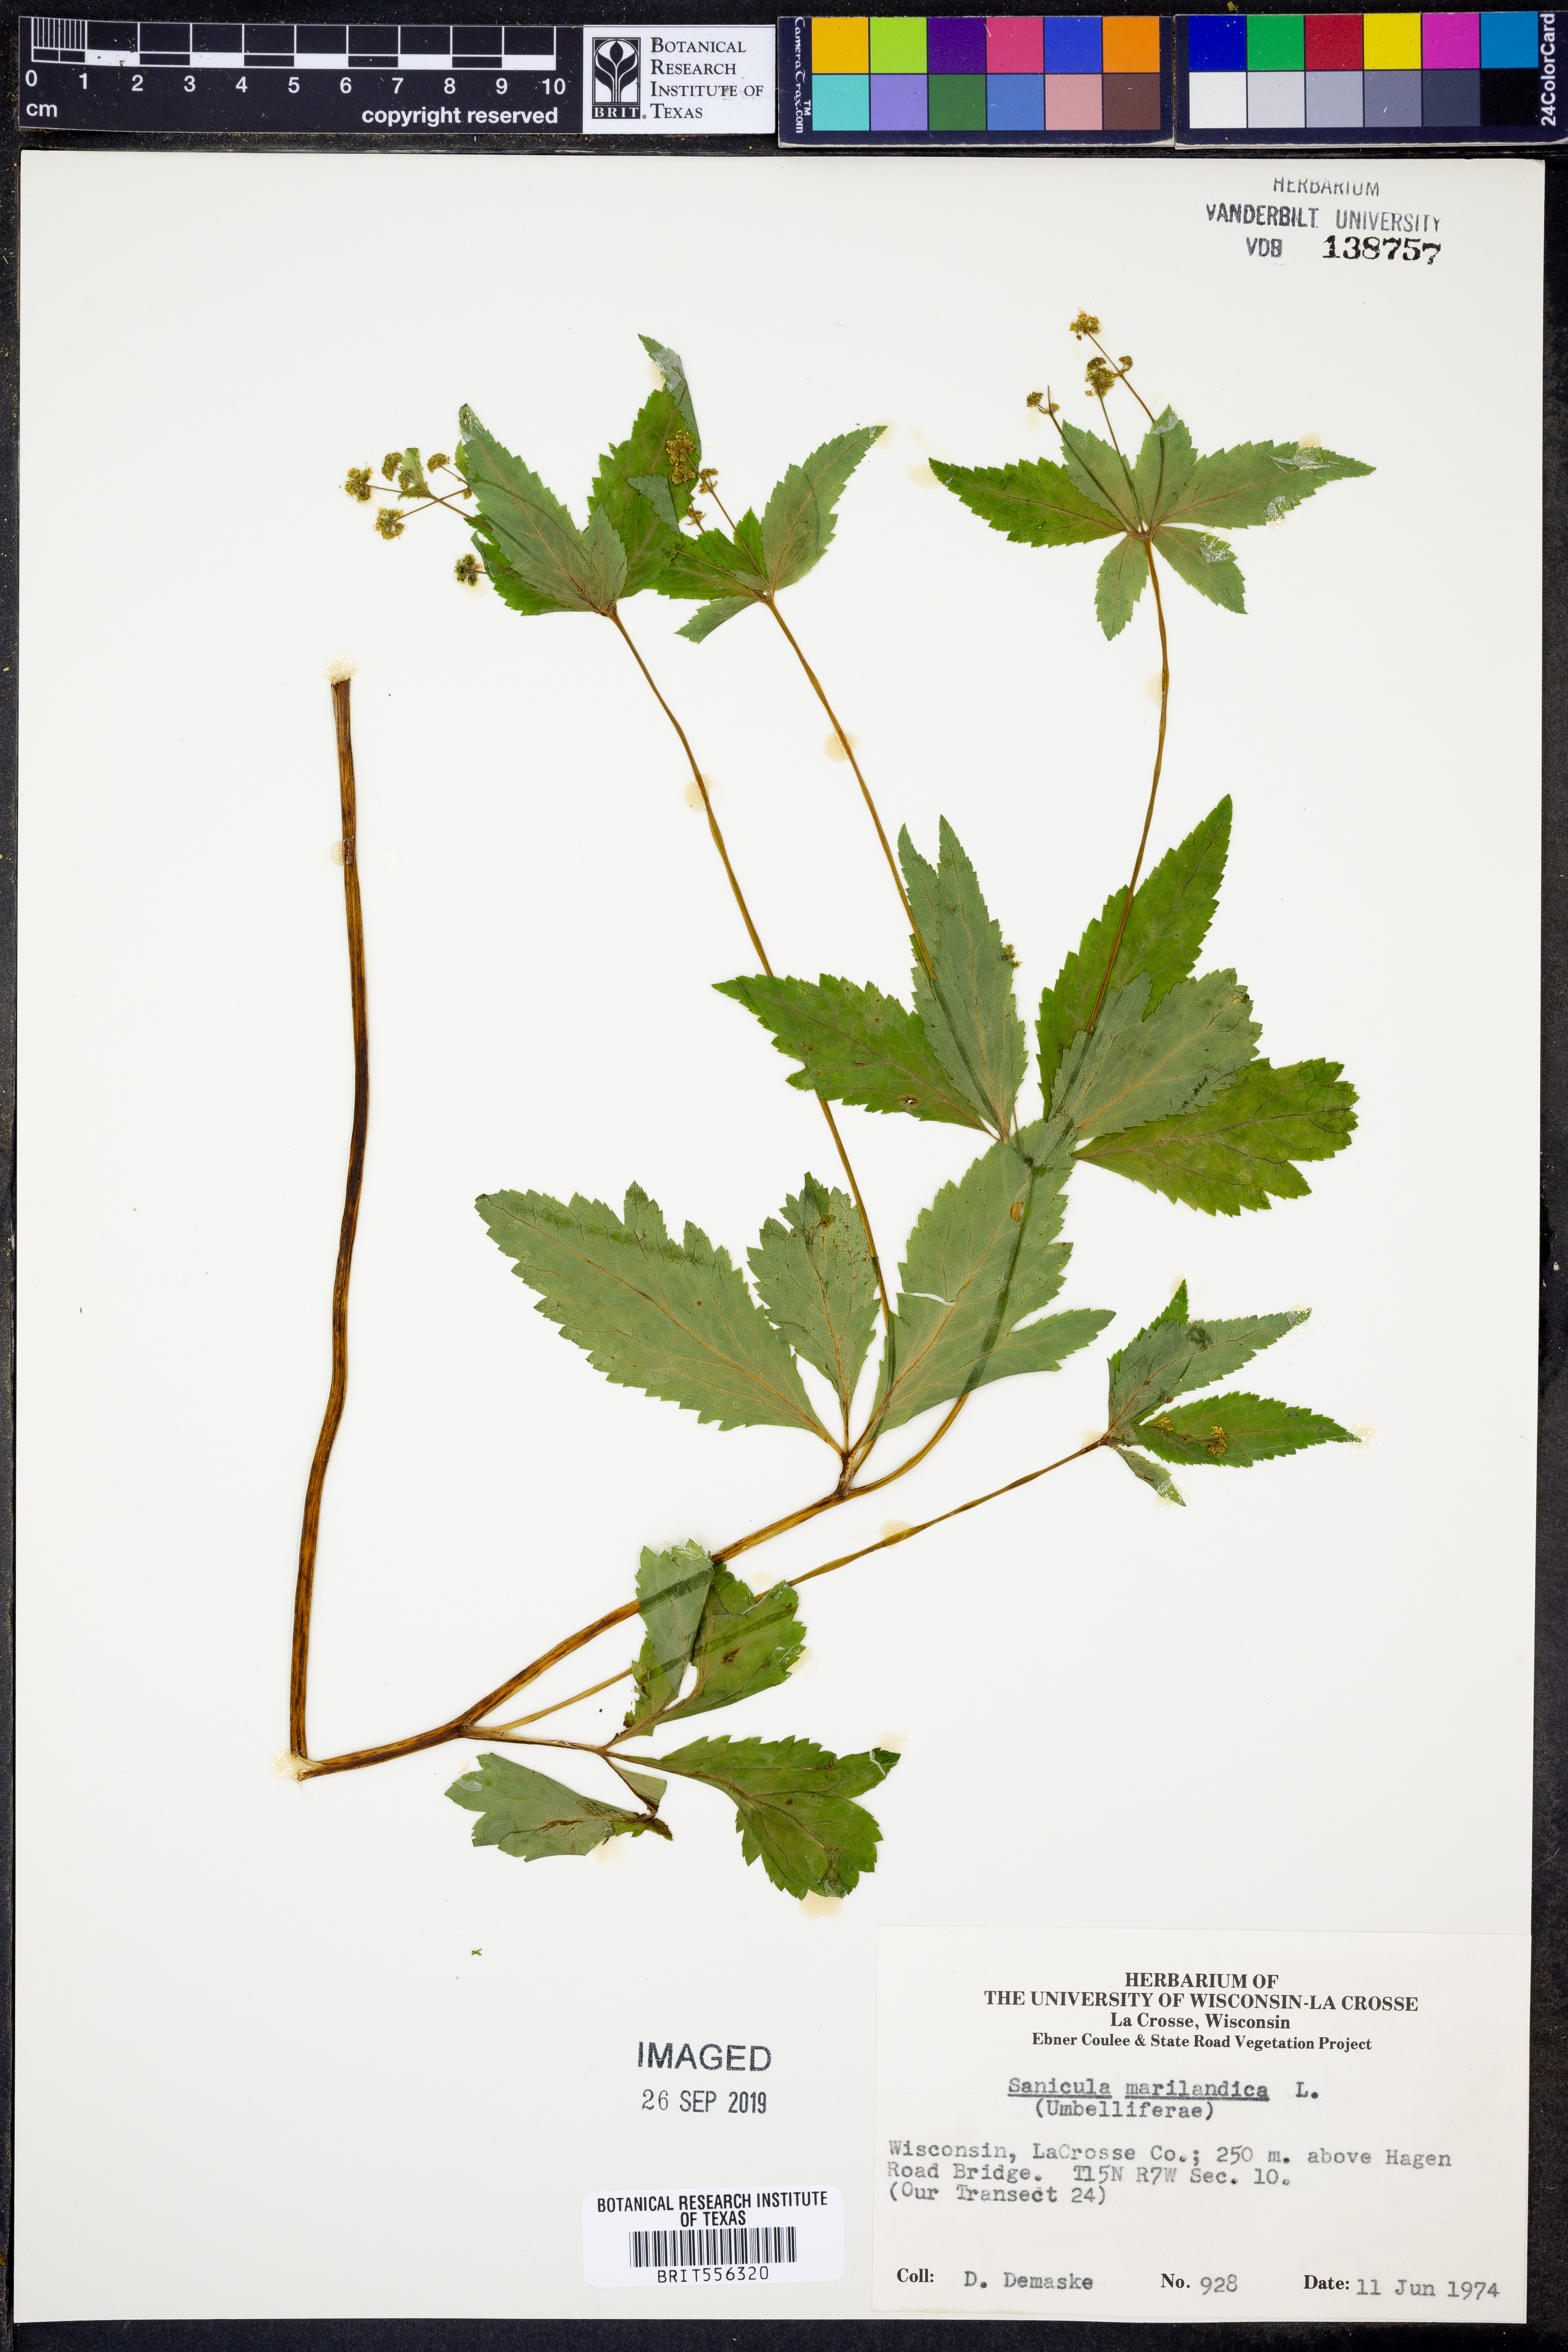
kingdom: Plantae
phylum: Tracheophyta
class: Magnoliopsida
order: Apiales
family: Apiaceae
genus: Sanicula
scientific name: Sanicula marilandica
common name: Black snakeroot
